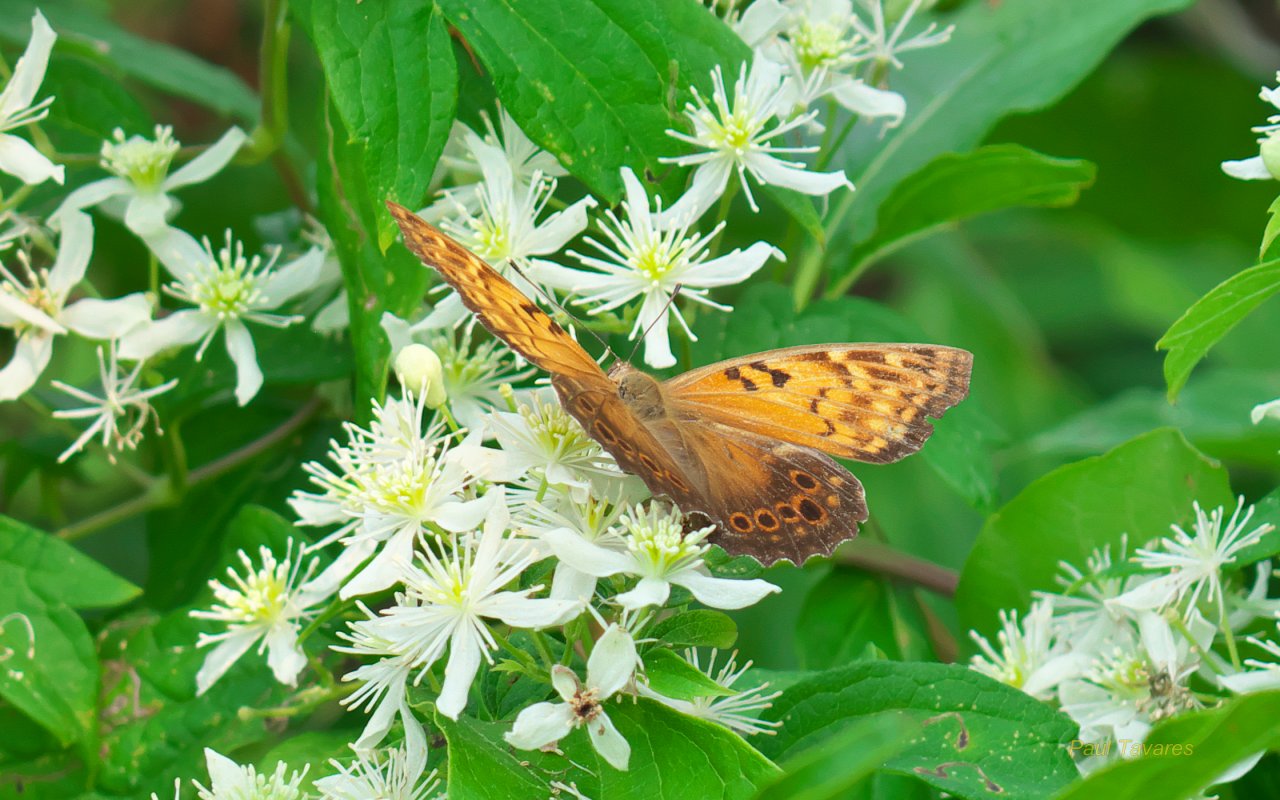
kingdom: Animalia
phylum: Arthropoda
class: Insecta
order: Lepidoptera
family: Nymphalidae
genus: Asterocampa
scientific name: Asterocampa clyton
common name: Tawny Emperor
